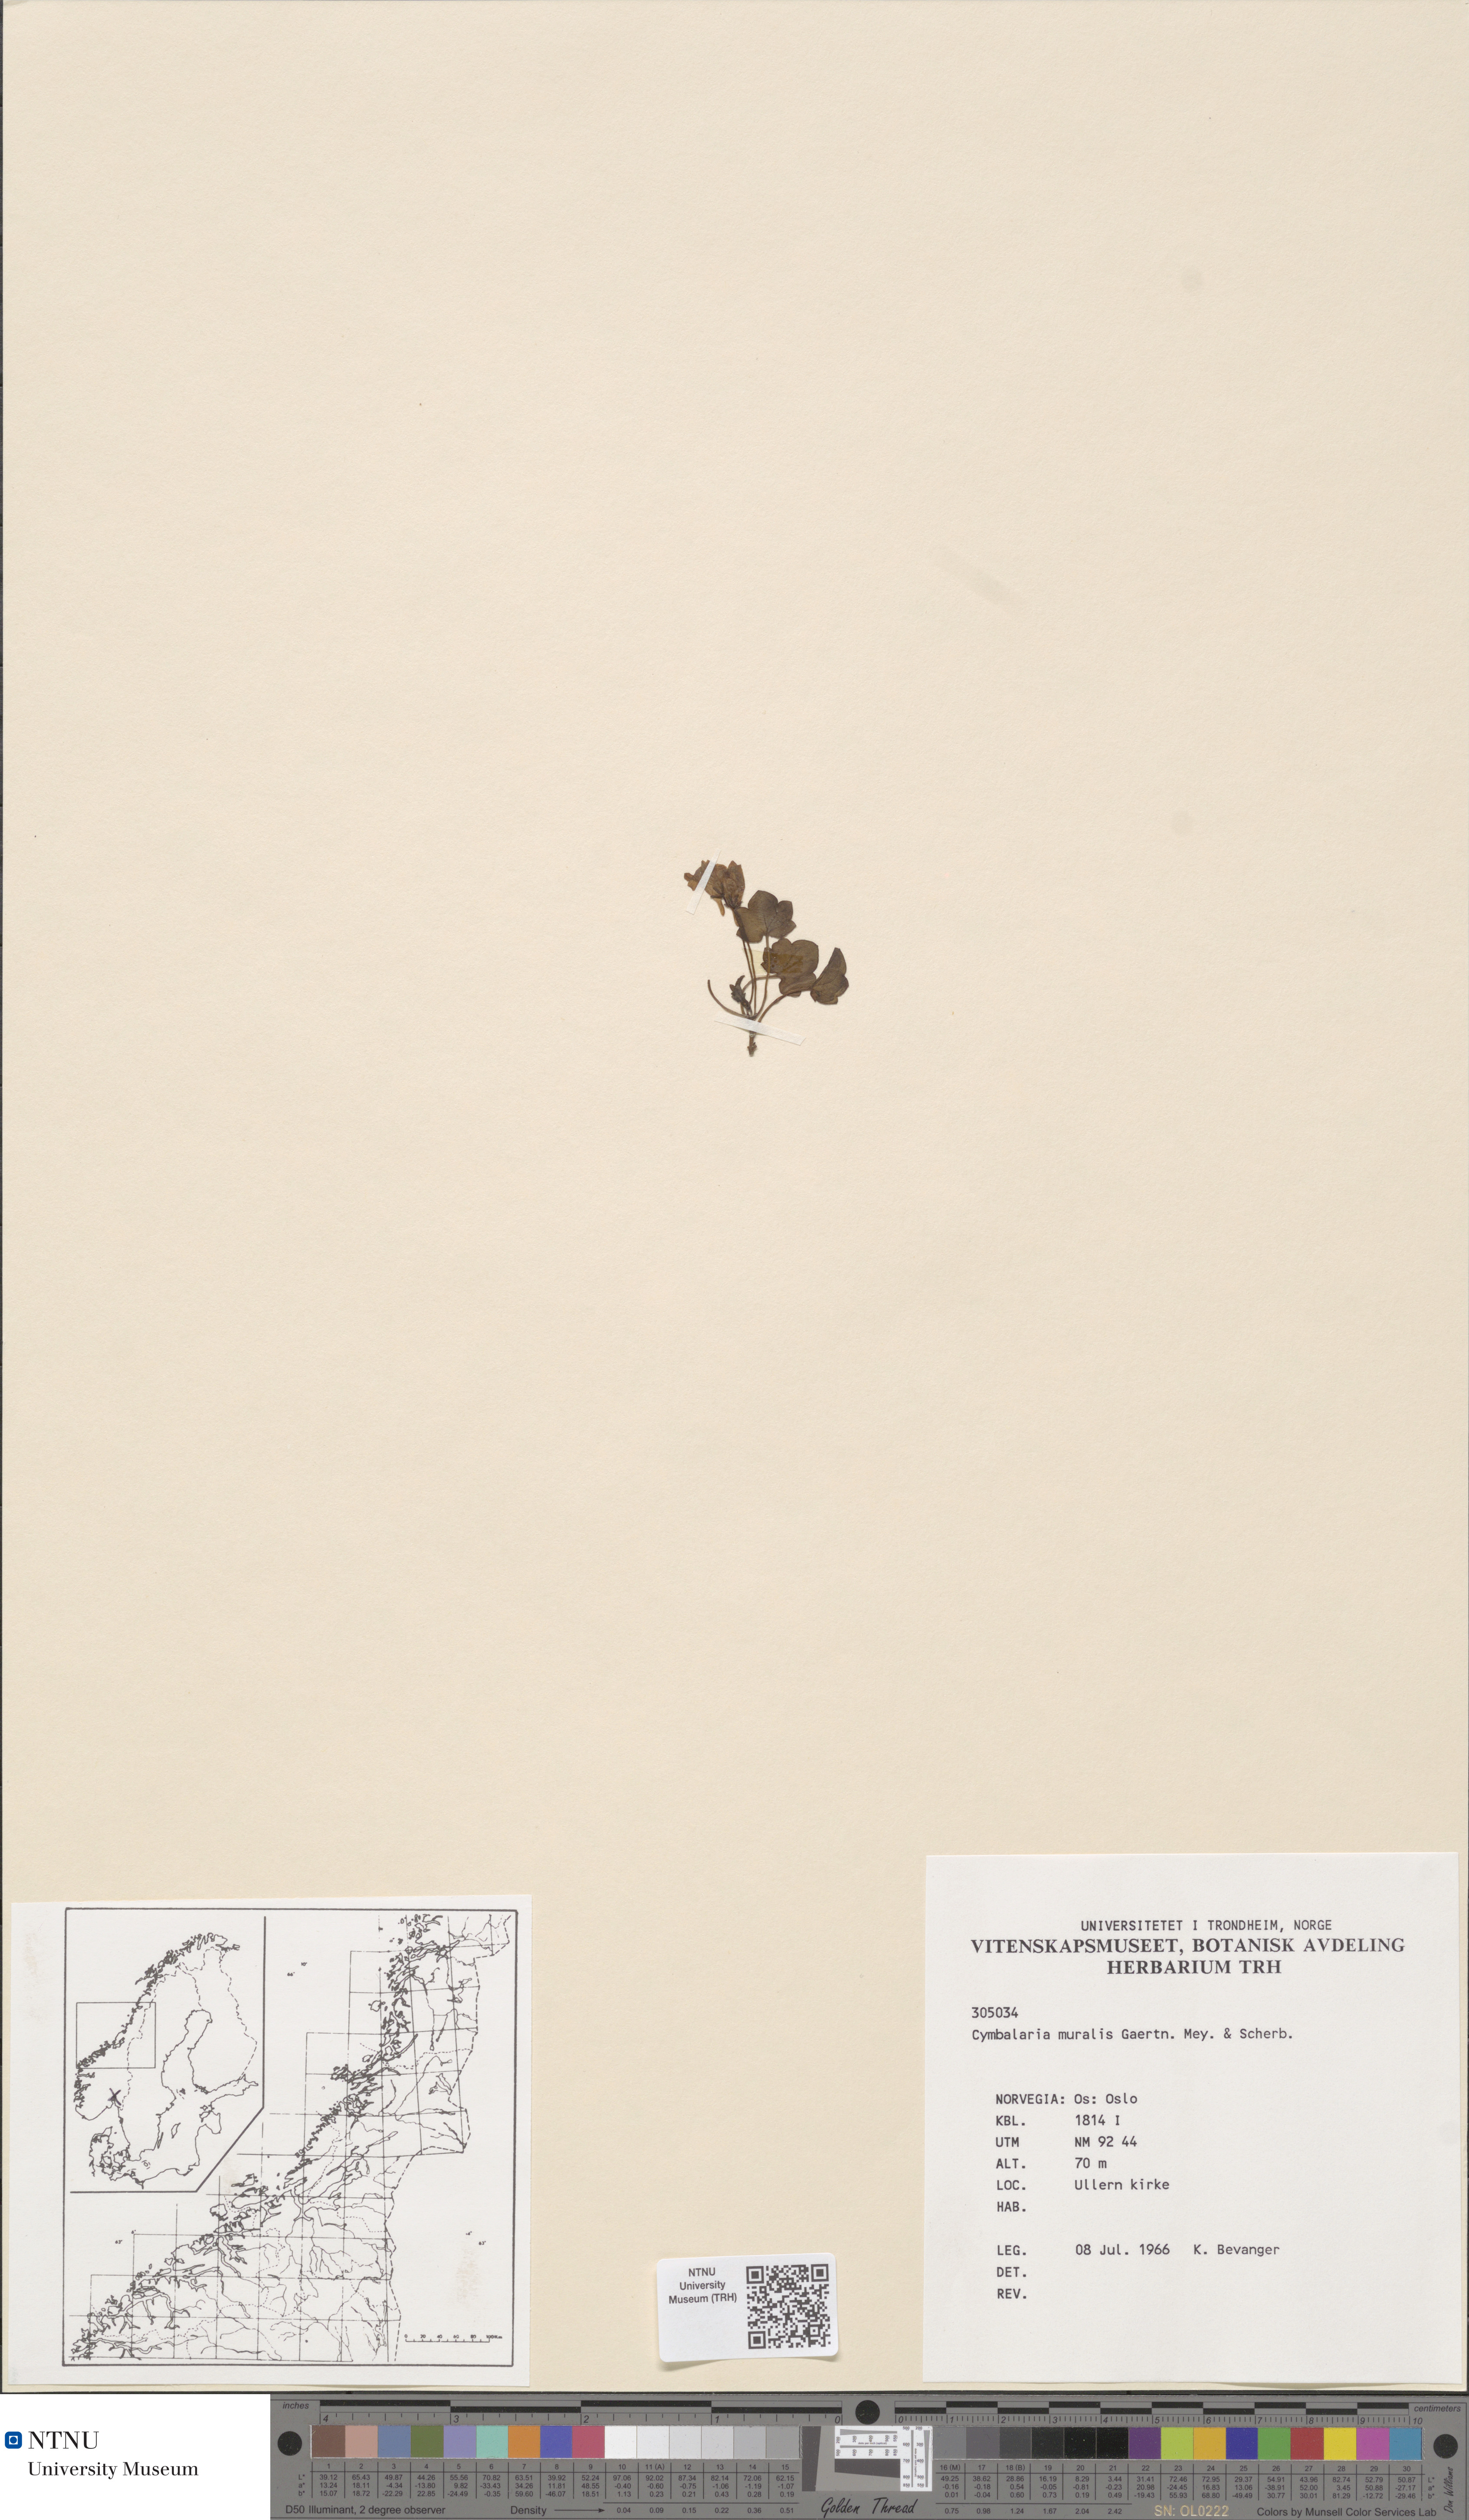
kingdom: Plantae
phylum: Tracheophyta
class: Magnoliopsida
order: Lamiales
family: Plantaginaceae
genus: Cymbalaria
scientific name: Cymbalaria muralis
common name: Ivy-leaved toadflax
